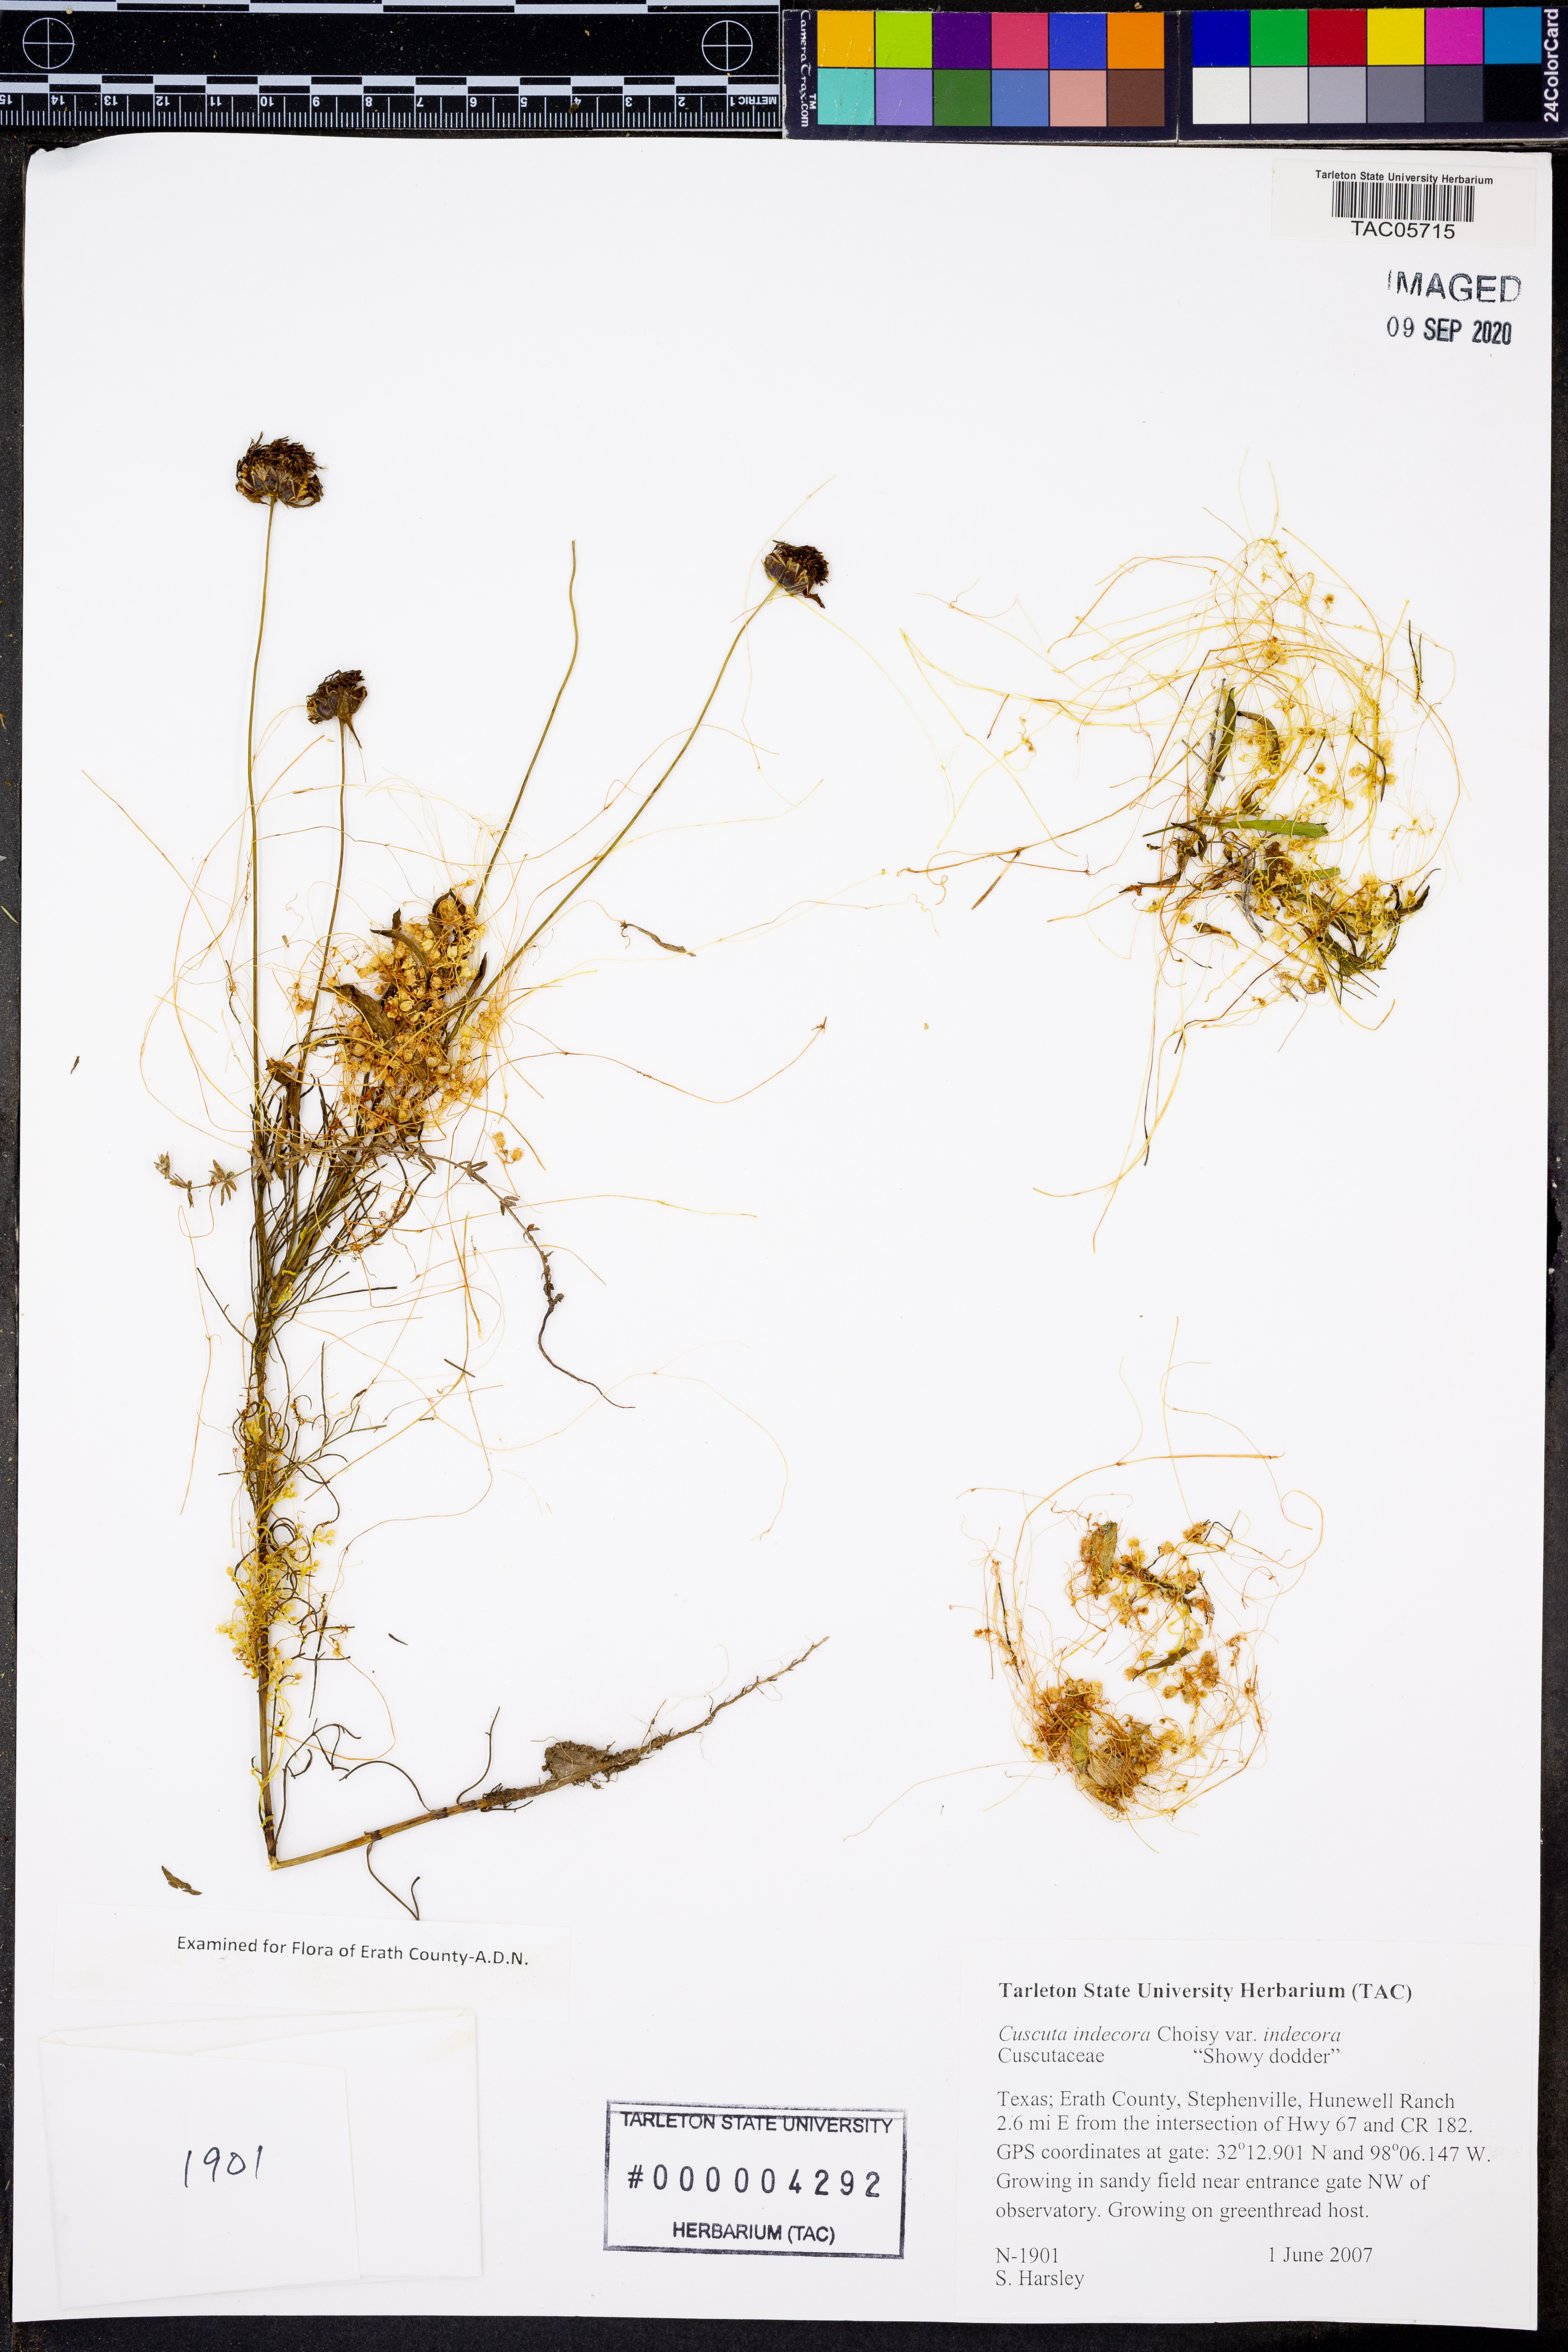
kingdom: Plantae
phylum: Tracheophyta
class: Magnoliopsida
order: Solanales
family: Convolvulaceae
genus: Cuscuta
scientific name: Cuscuta indecora
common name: Large-seed dodder
